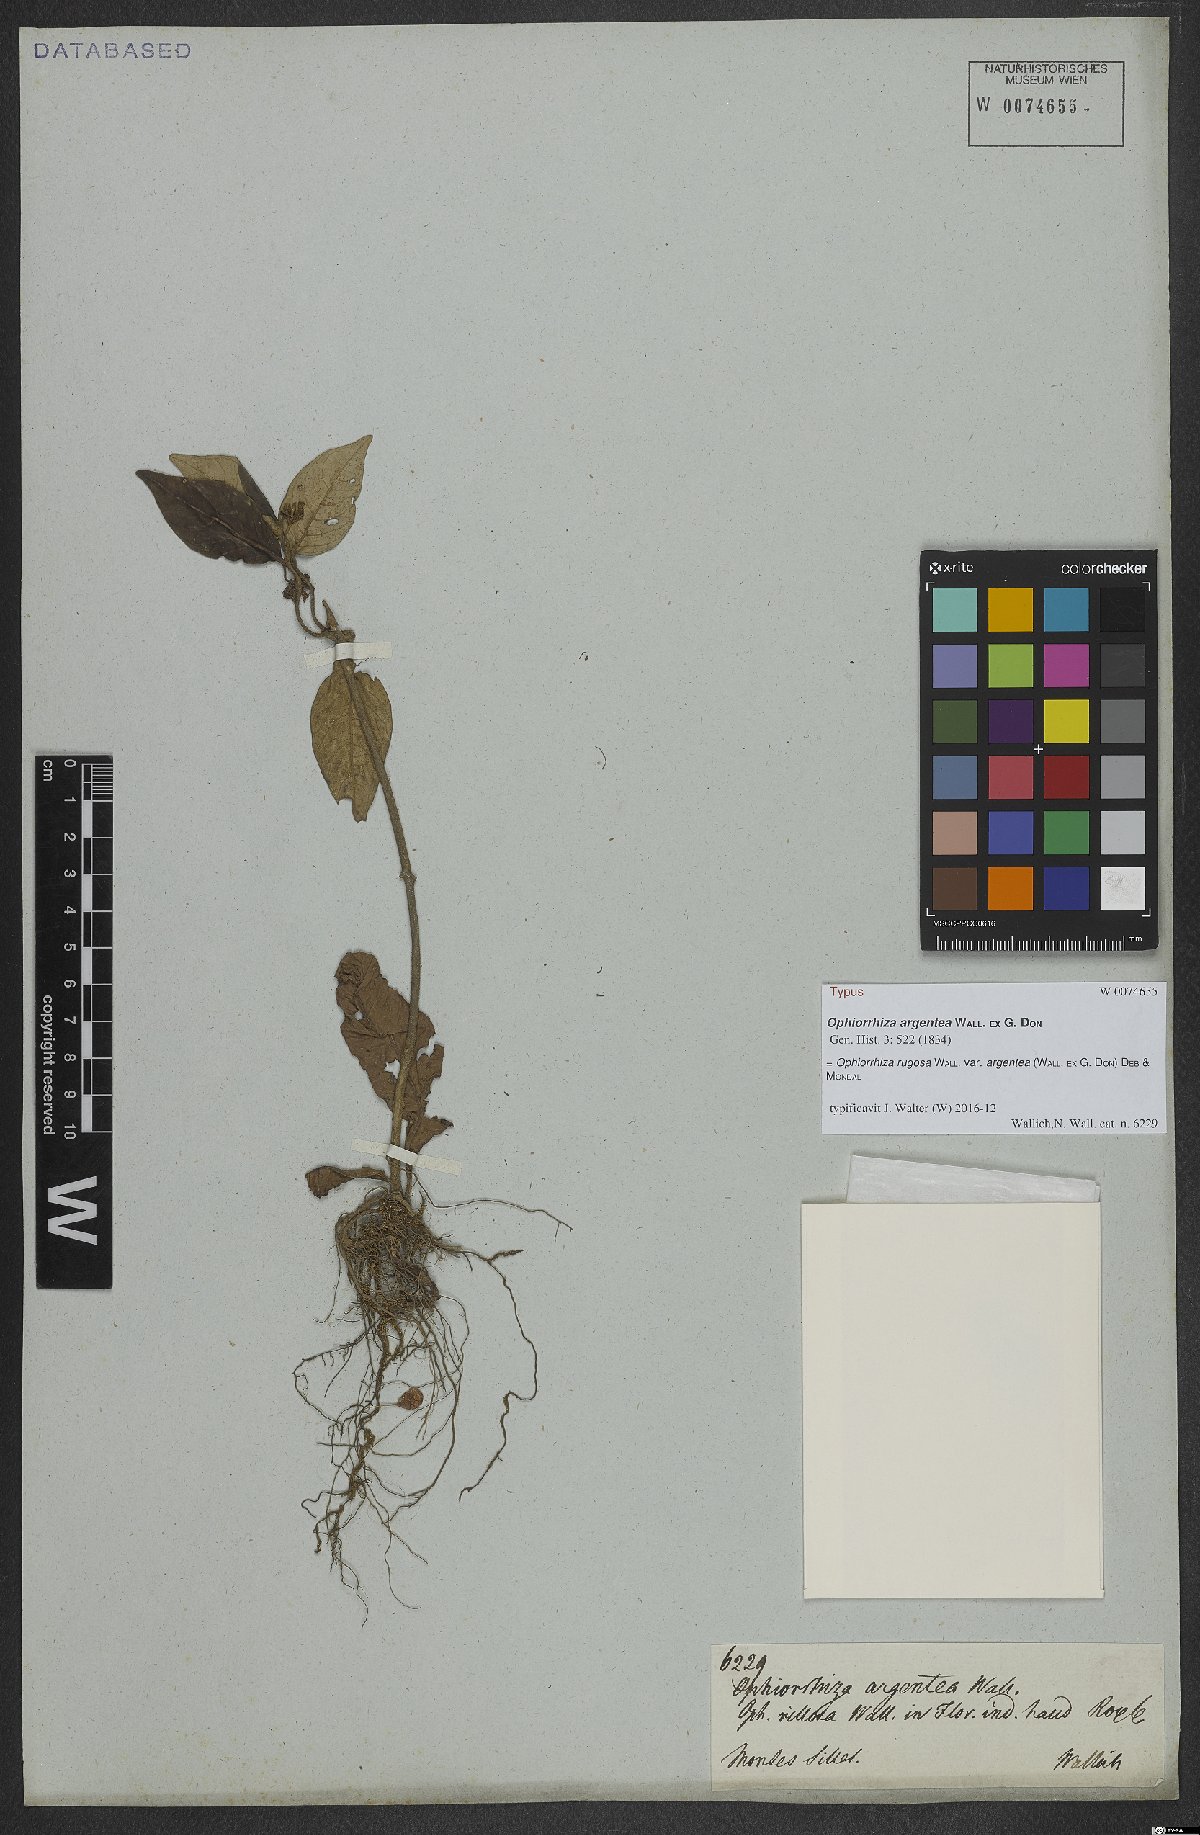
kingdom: Plantae
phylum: Tracheophyta
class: Magnoliopsida
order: Gentianales
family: Rubiaceae
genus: Ophiorrhiza
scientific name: Ophiorrhiza rugosa
